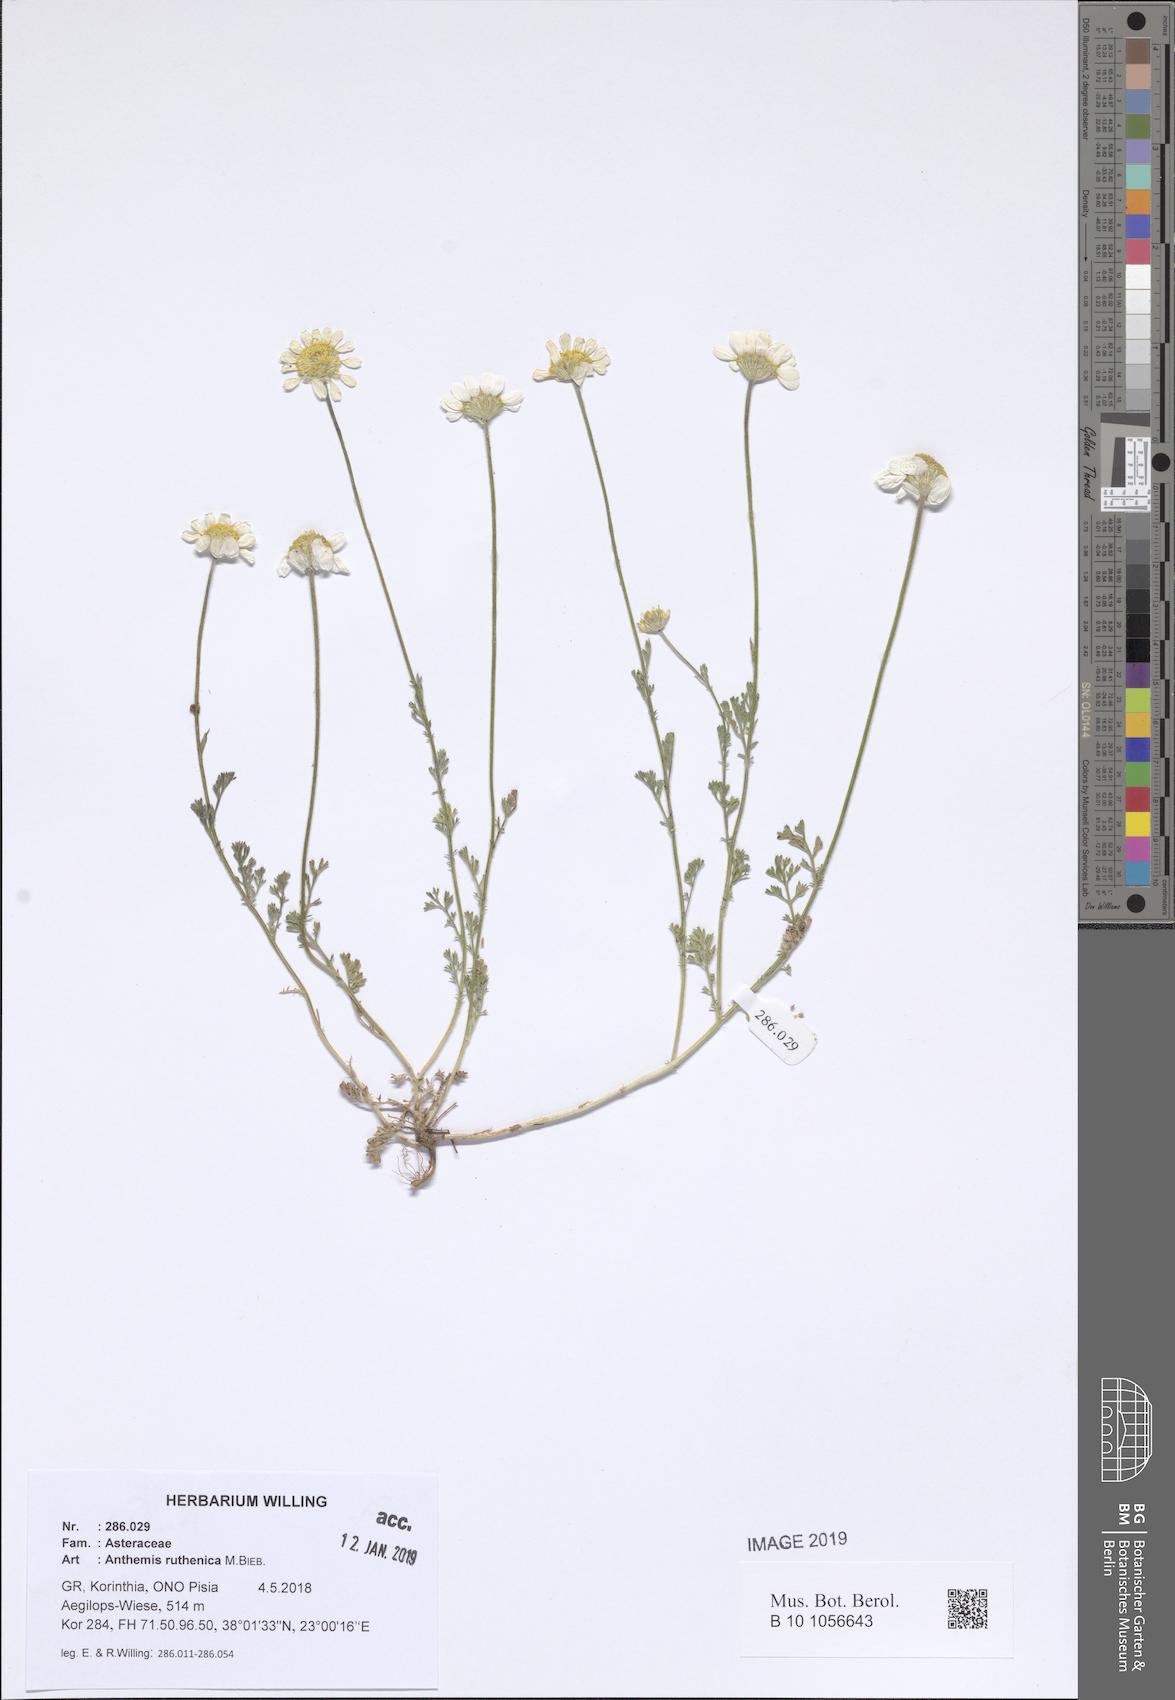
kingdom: Plantae
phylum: Tracheophyta
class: Magnoliopsida
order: Asterales
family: Asteraceae
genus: Anthemis
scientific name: Anthemis ruthenica
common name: Eastern chamomile
